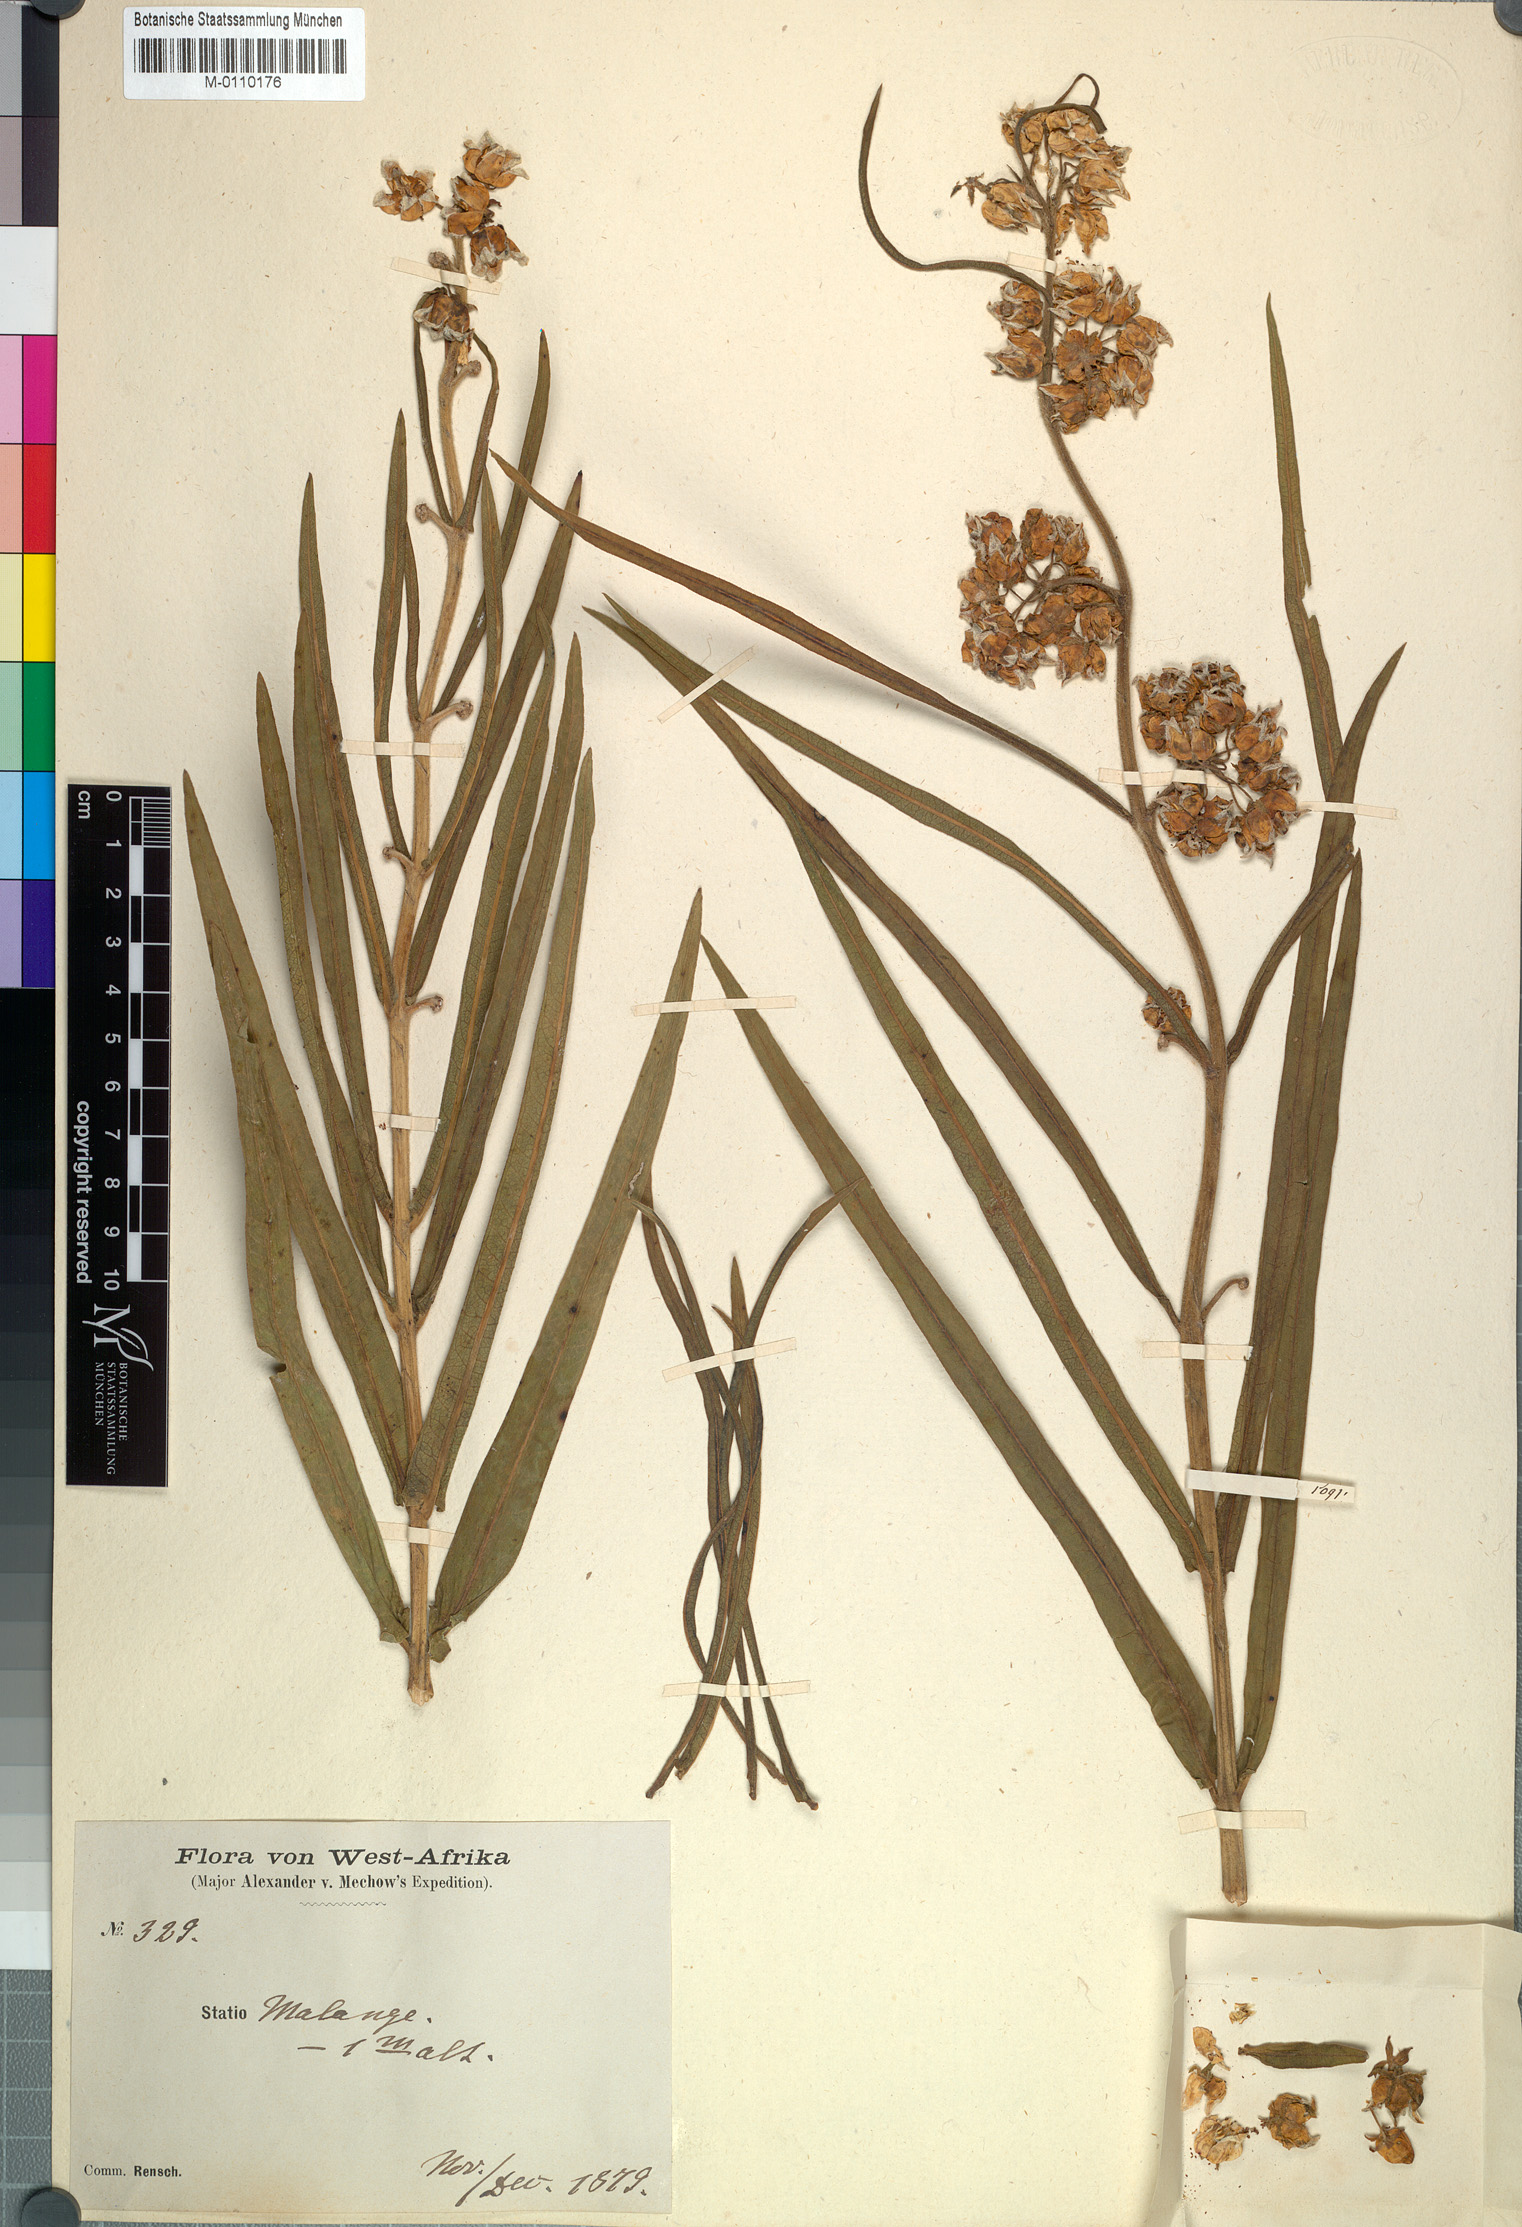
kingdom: Plantae
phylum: Tracheophyta
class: Magnoliopsida
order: Gentianales
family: Apocynaceae
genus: Xysmalobium
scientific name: Xysmalobium undulatum
